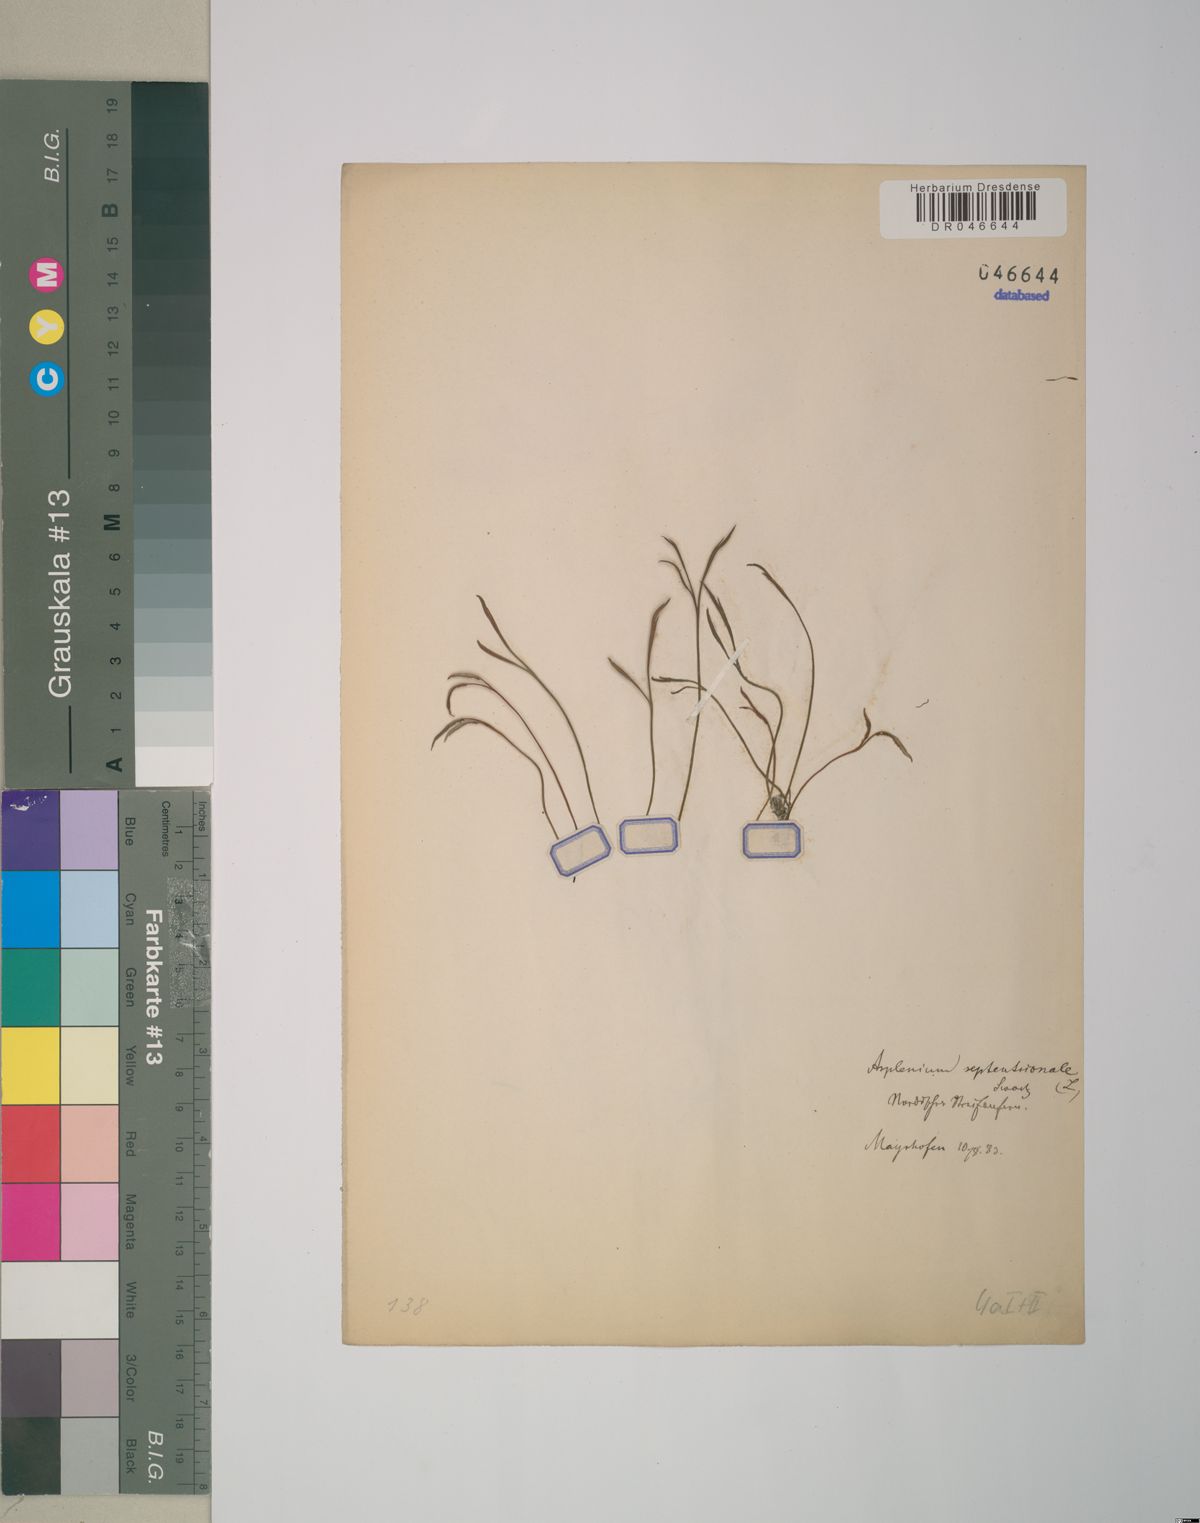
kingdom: Plantae
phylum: Tracheophyta
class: Polypodiopsida
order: Polypodiales
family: Aspleniaceae
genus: Asplenium
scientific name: Asplenium septentrionale
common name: Forked spleenwort
